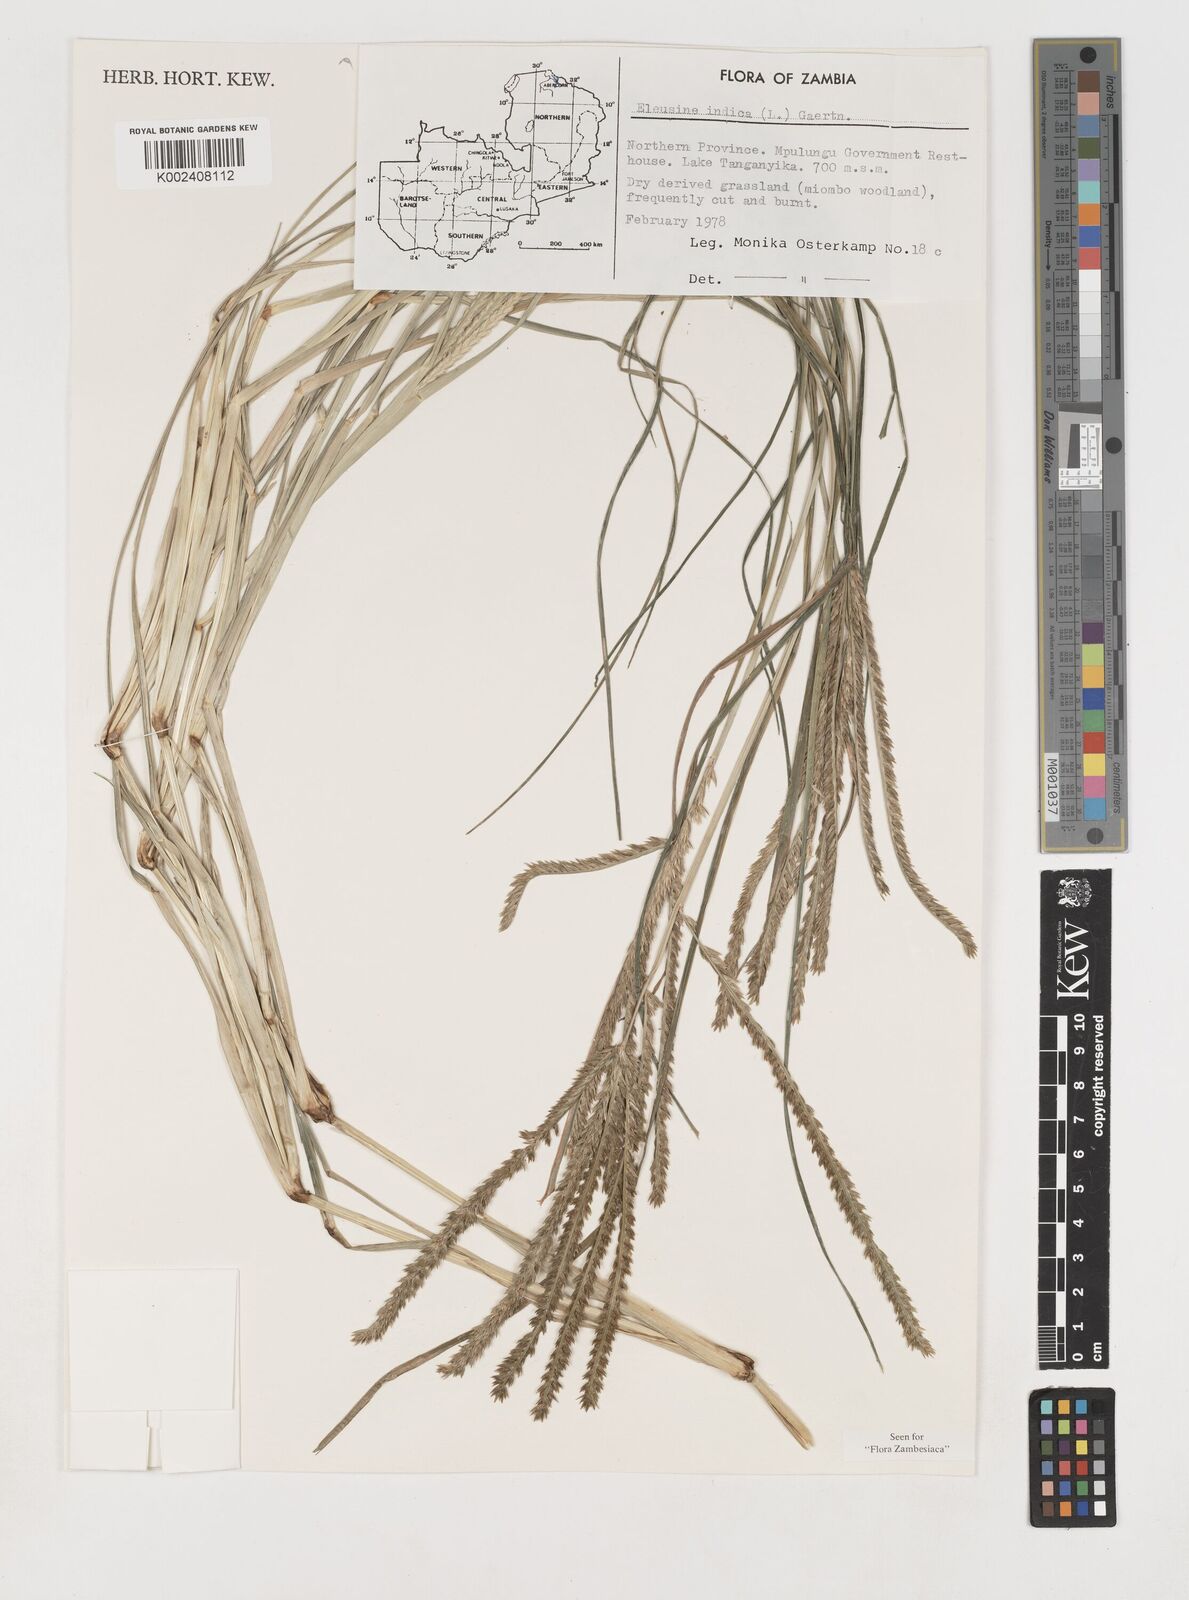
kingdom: Plantae
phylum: Tracheophyta
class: Liliopsida
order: Poales
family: Poaceae
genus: Eleusine
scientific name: Eleusine africana
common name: Wild african finger millet
